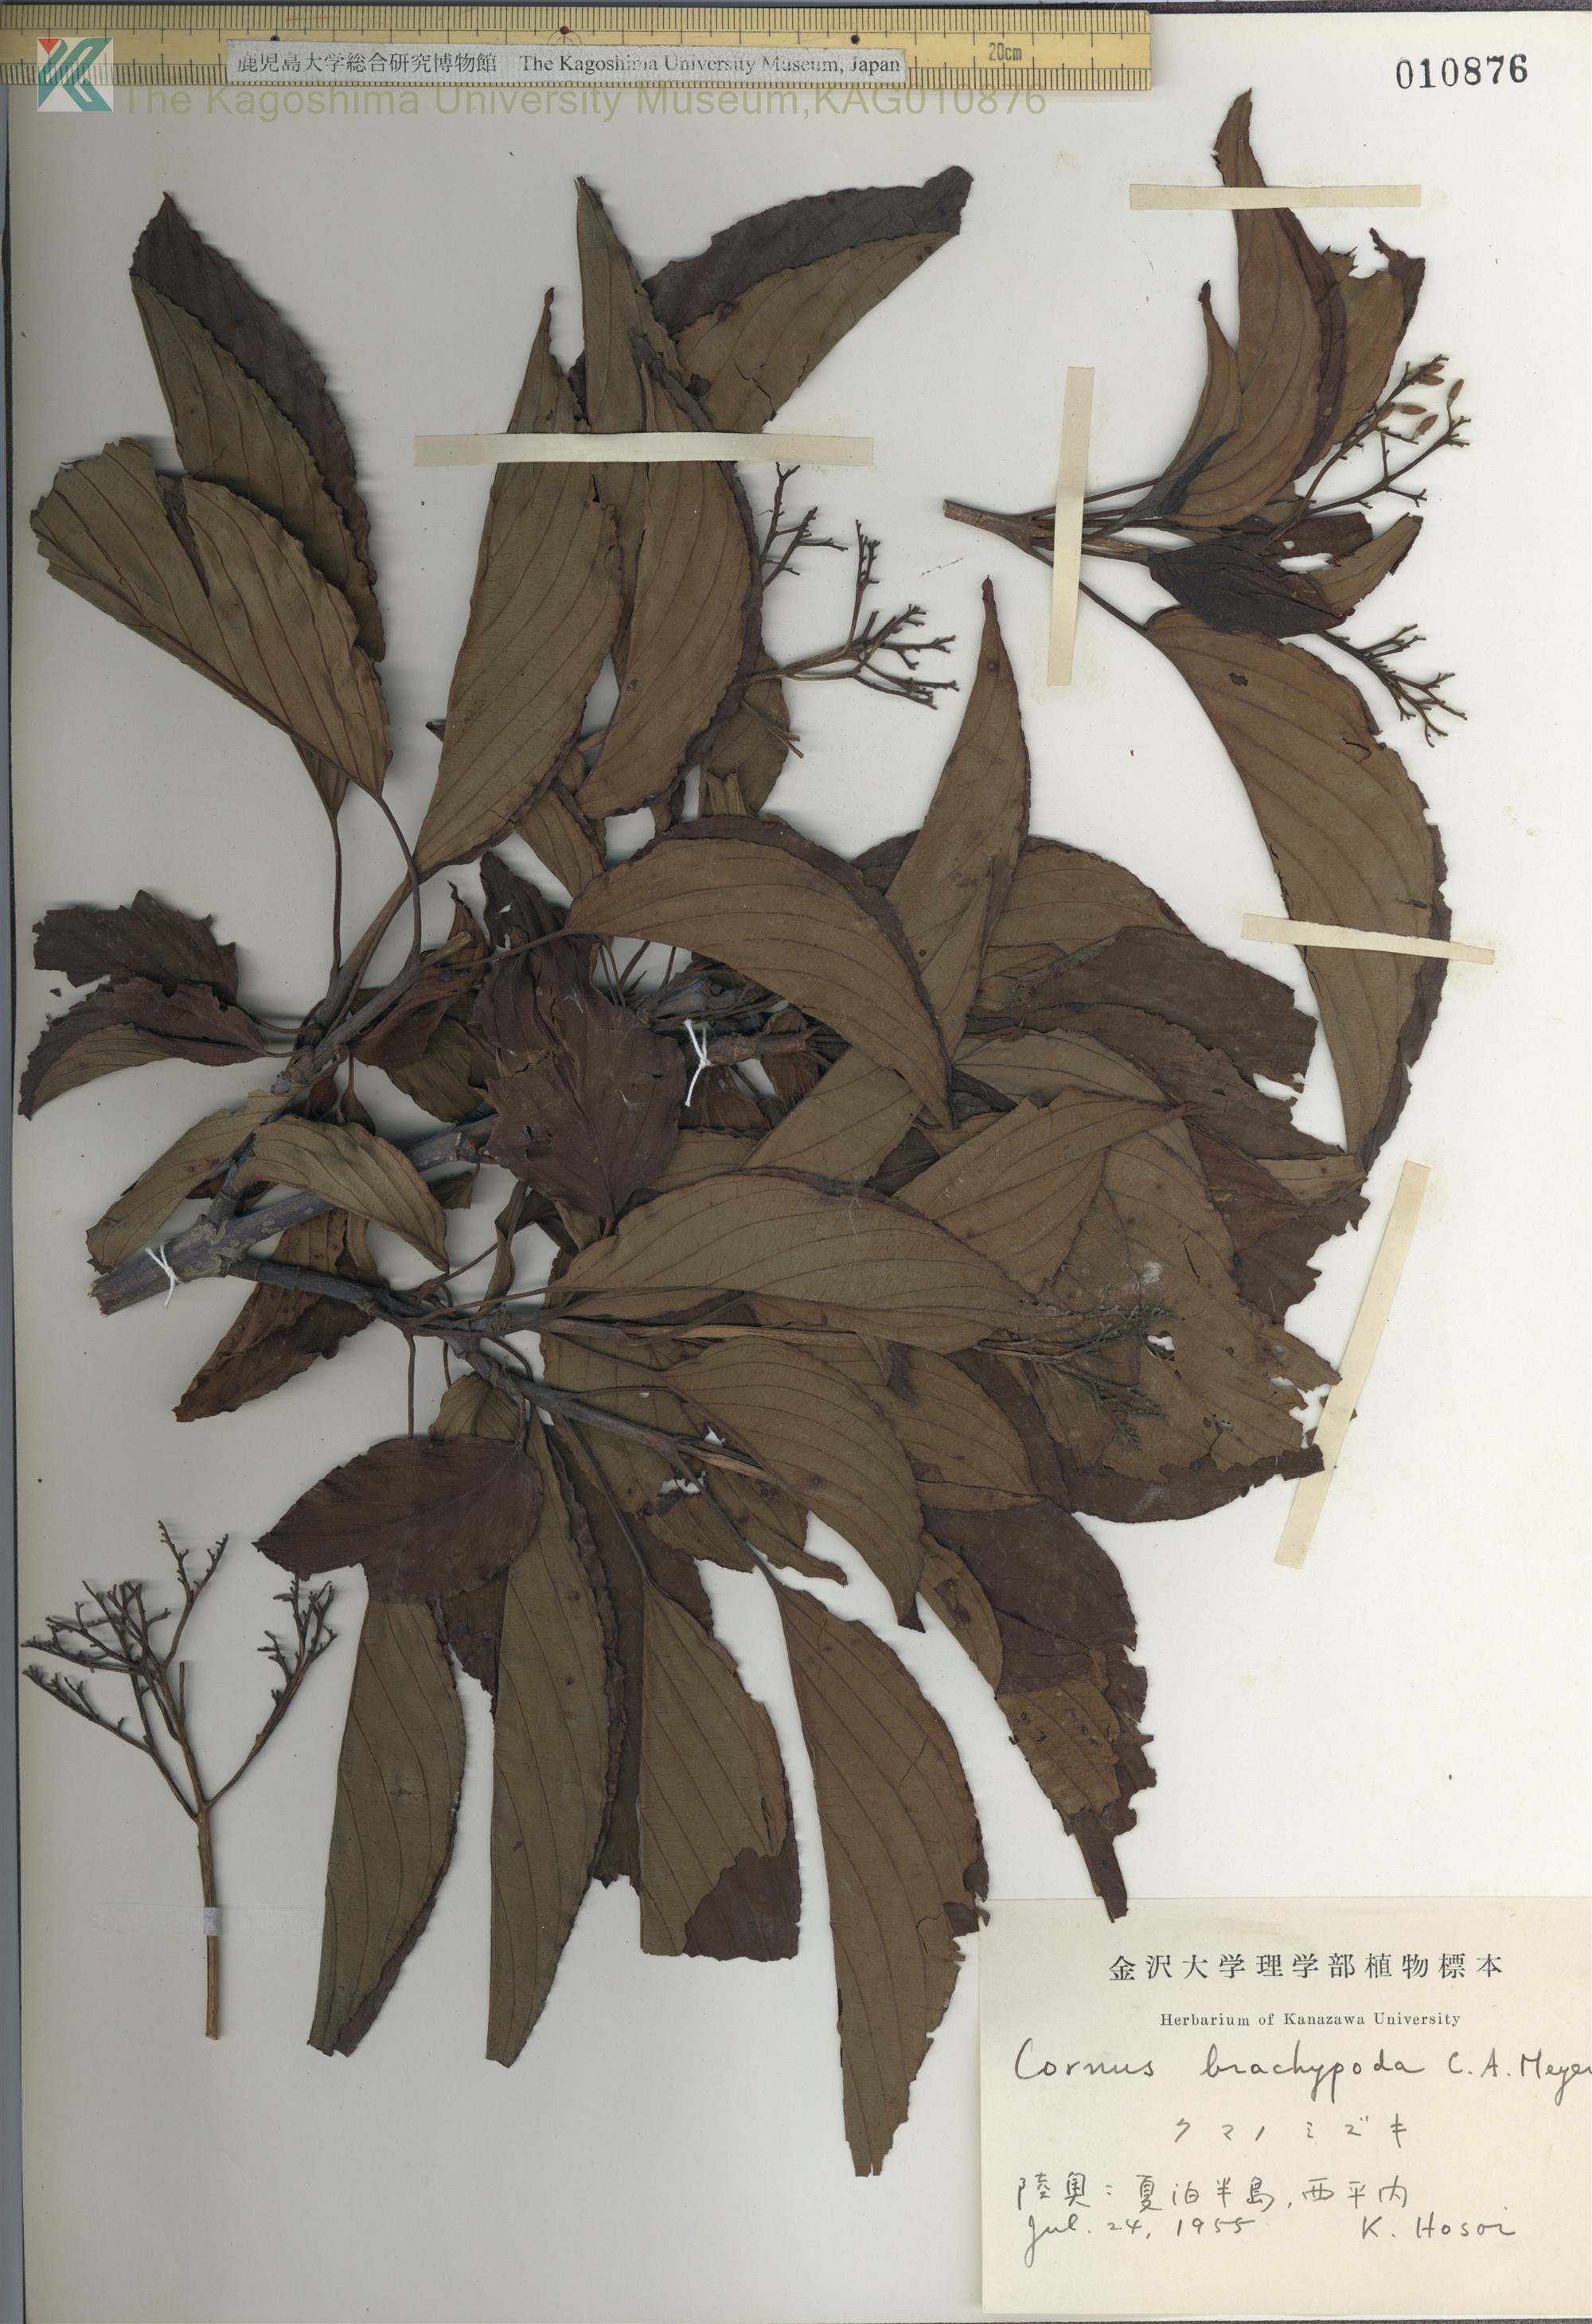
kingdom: Plantae
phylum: Tracheophyta
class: Magnoliopsida
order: Cornales
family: Cornaceae
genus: Cornus
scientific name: Cornus macrophylla
